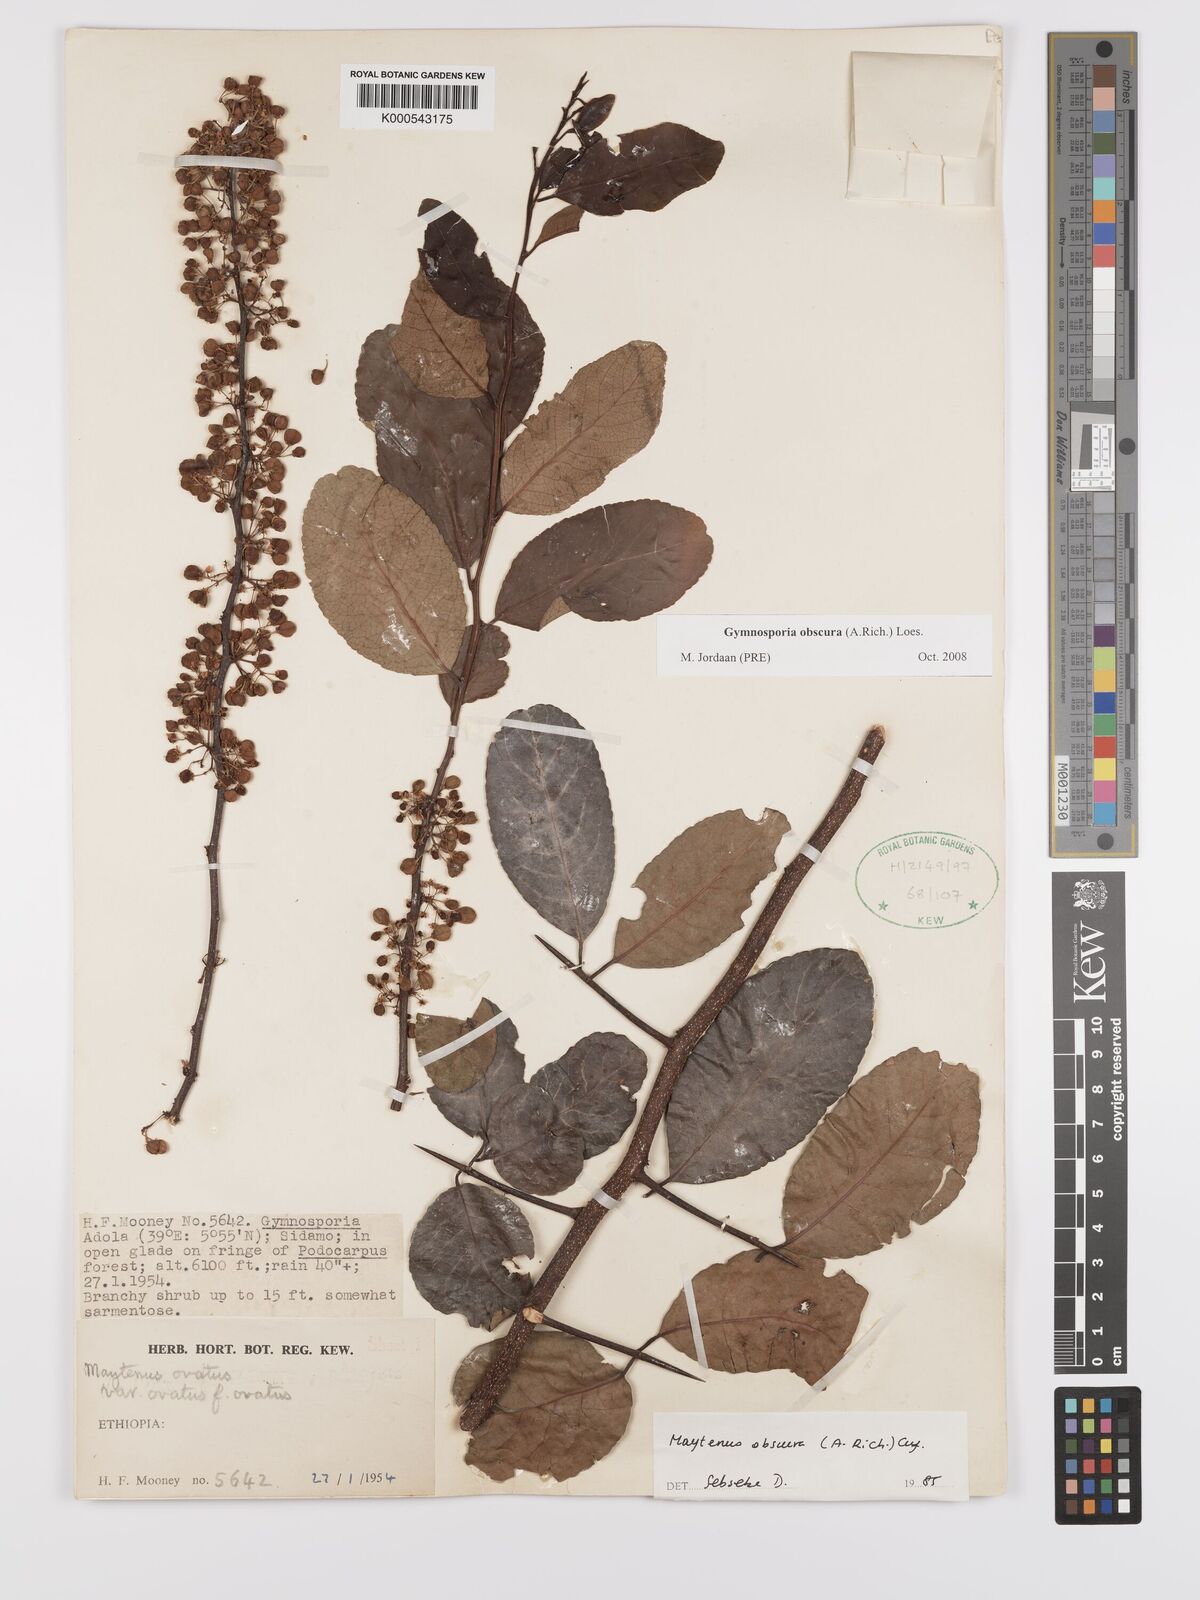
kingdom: Plantae
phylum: Tracheophyta
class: Magnoliopsida
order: Celastrales
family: Celastraceae
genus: Gymnosporia
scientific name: Gymnosporia obscura
